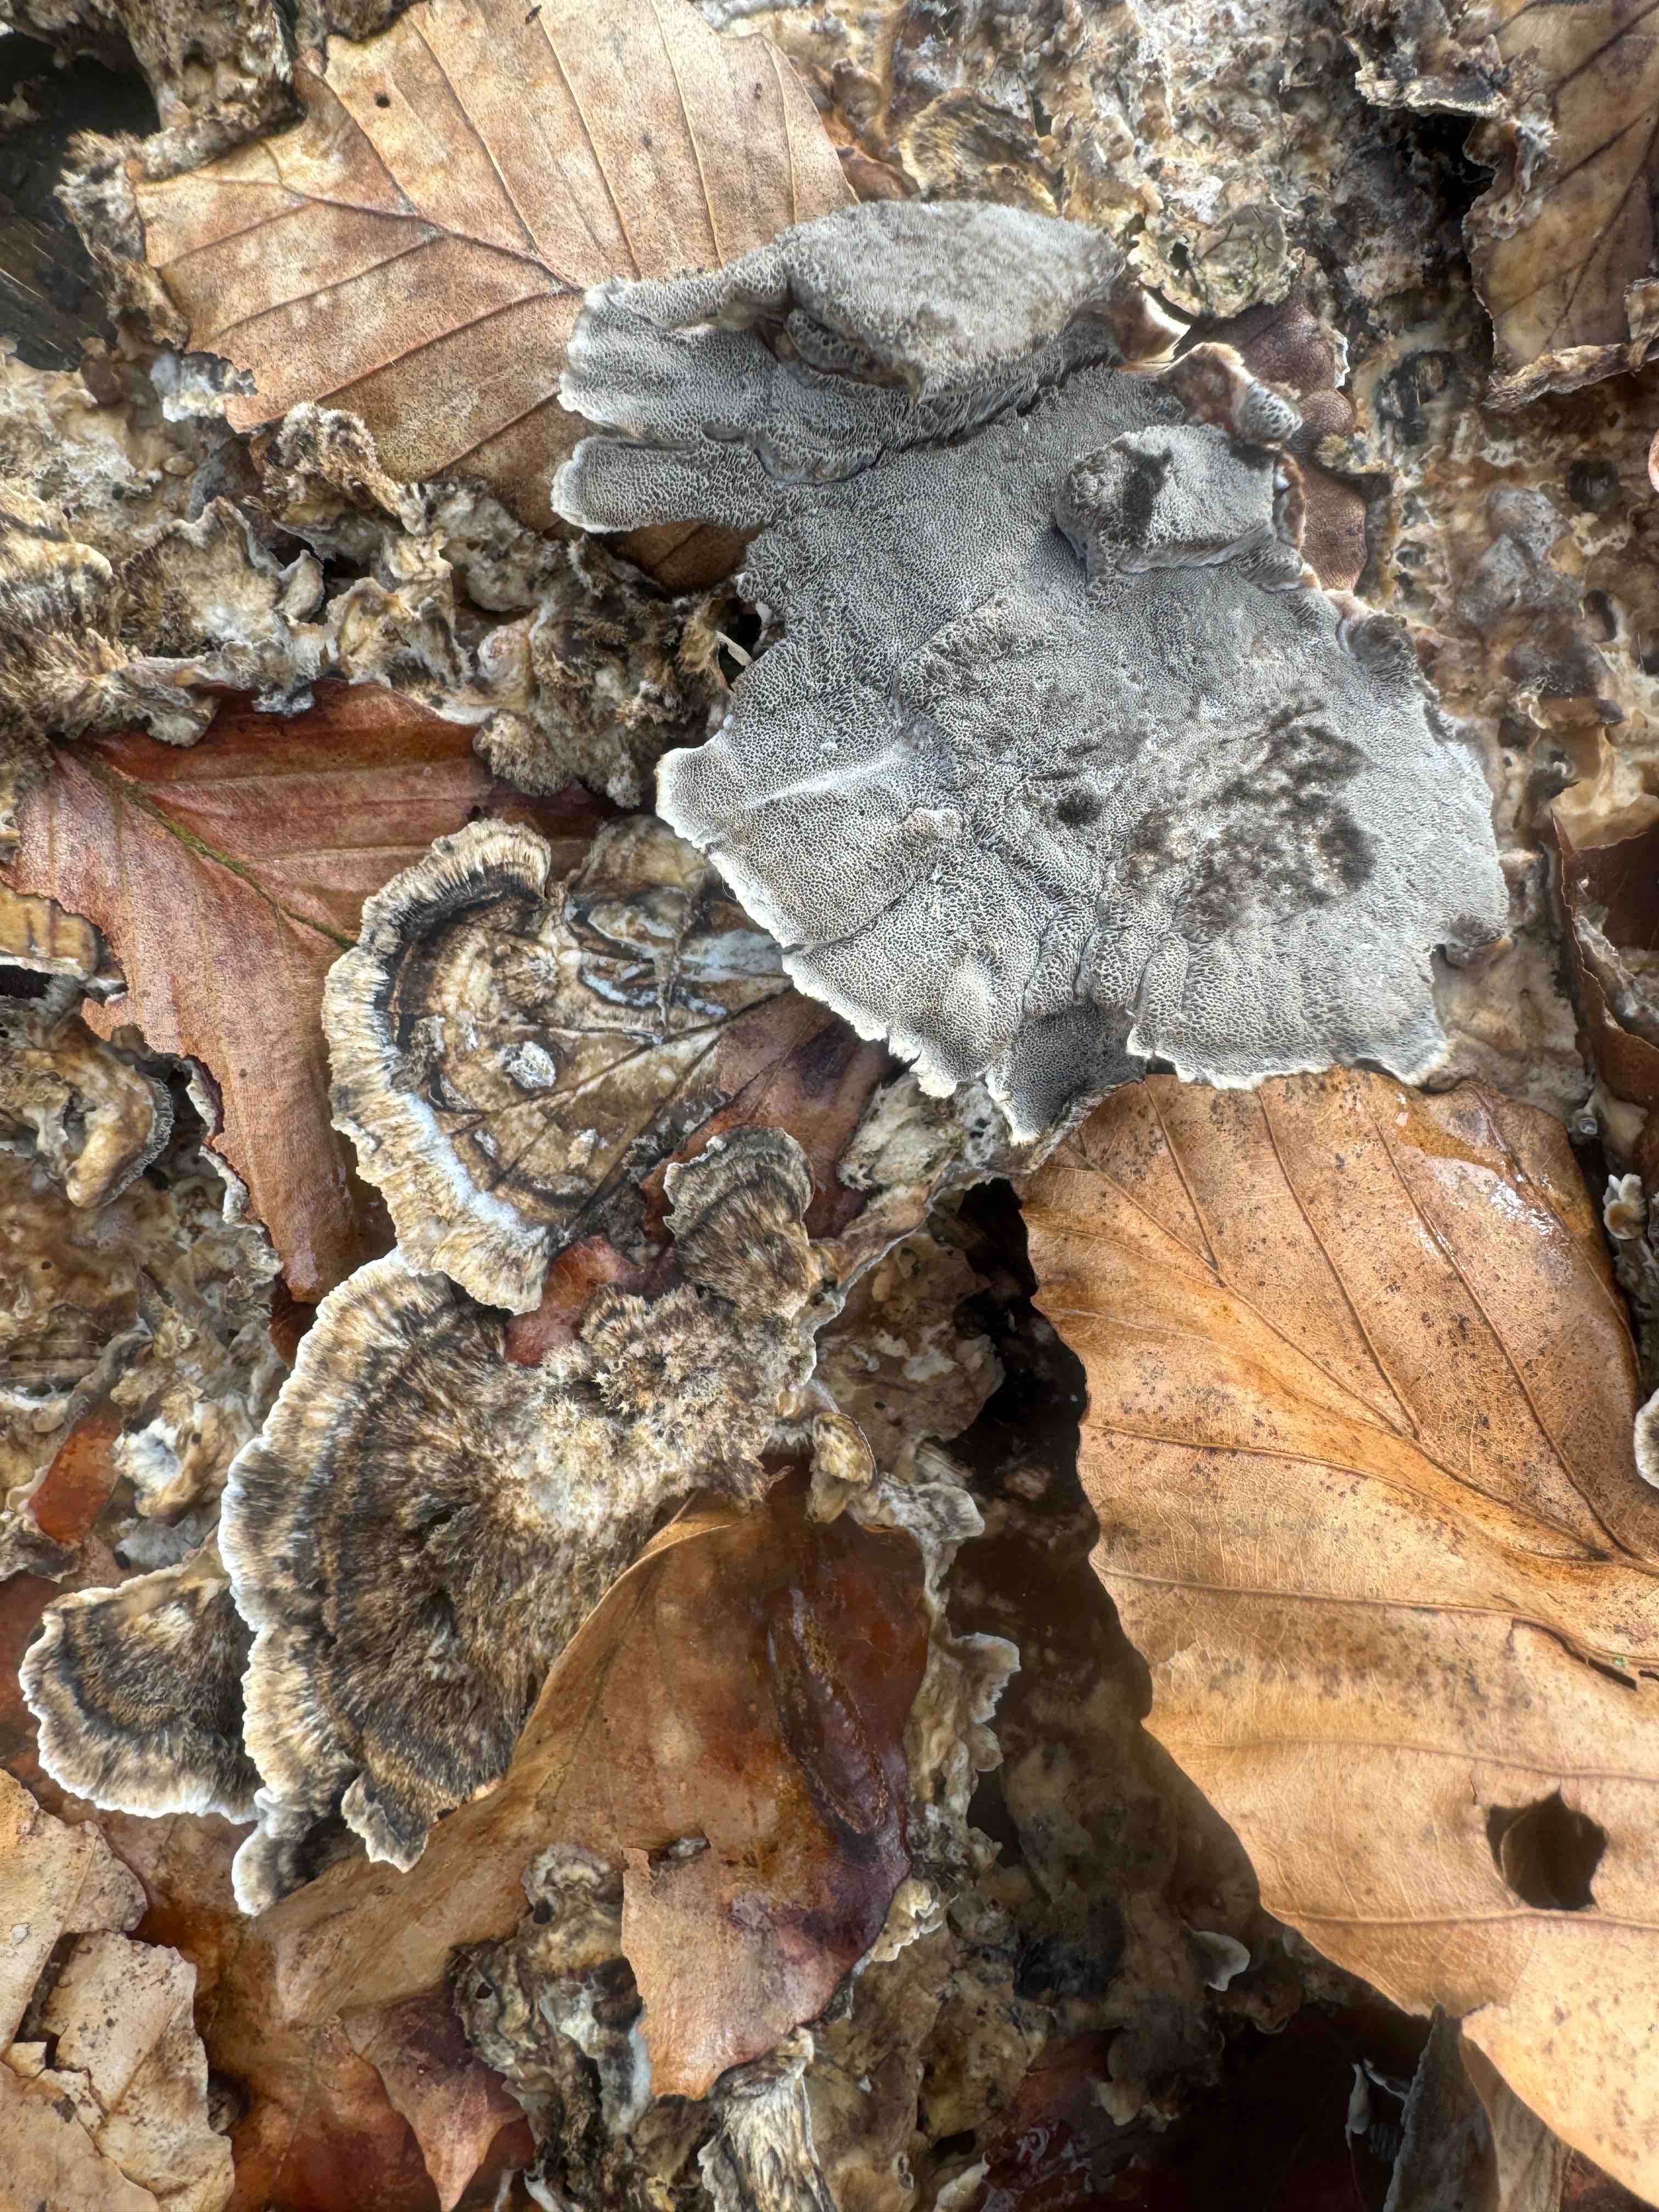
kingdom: Fungi
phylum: Basidiomycota
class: Agaricomycetes
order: Polyporales
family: Phanerochaetaceae
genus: Bjerkandera
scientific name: Bjerkandera adusta
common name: sveden sodporesvamp
